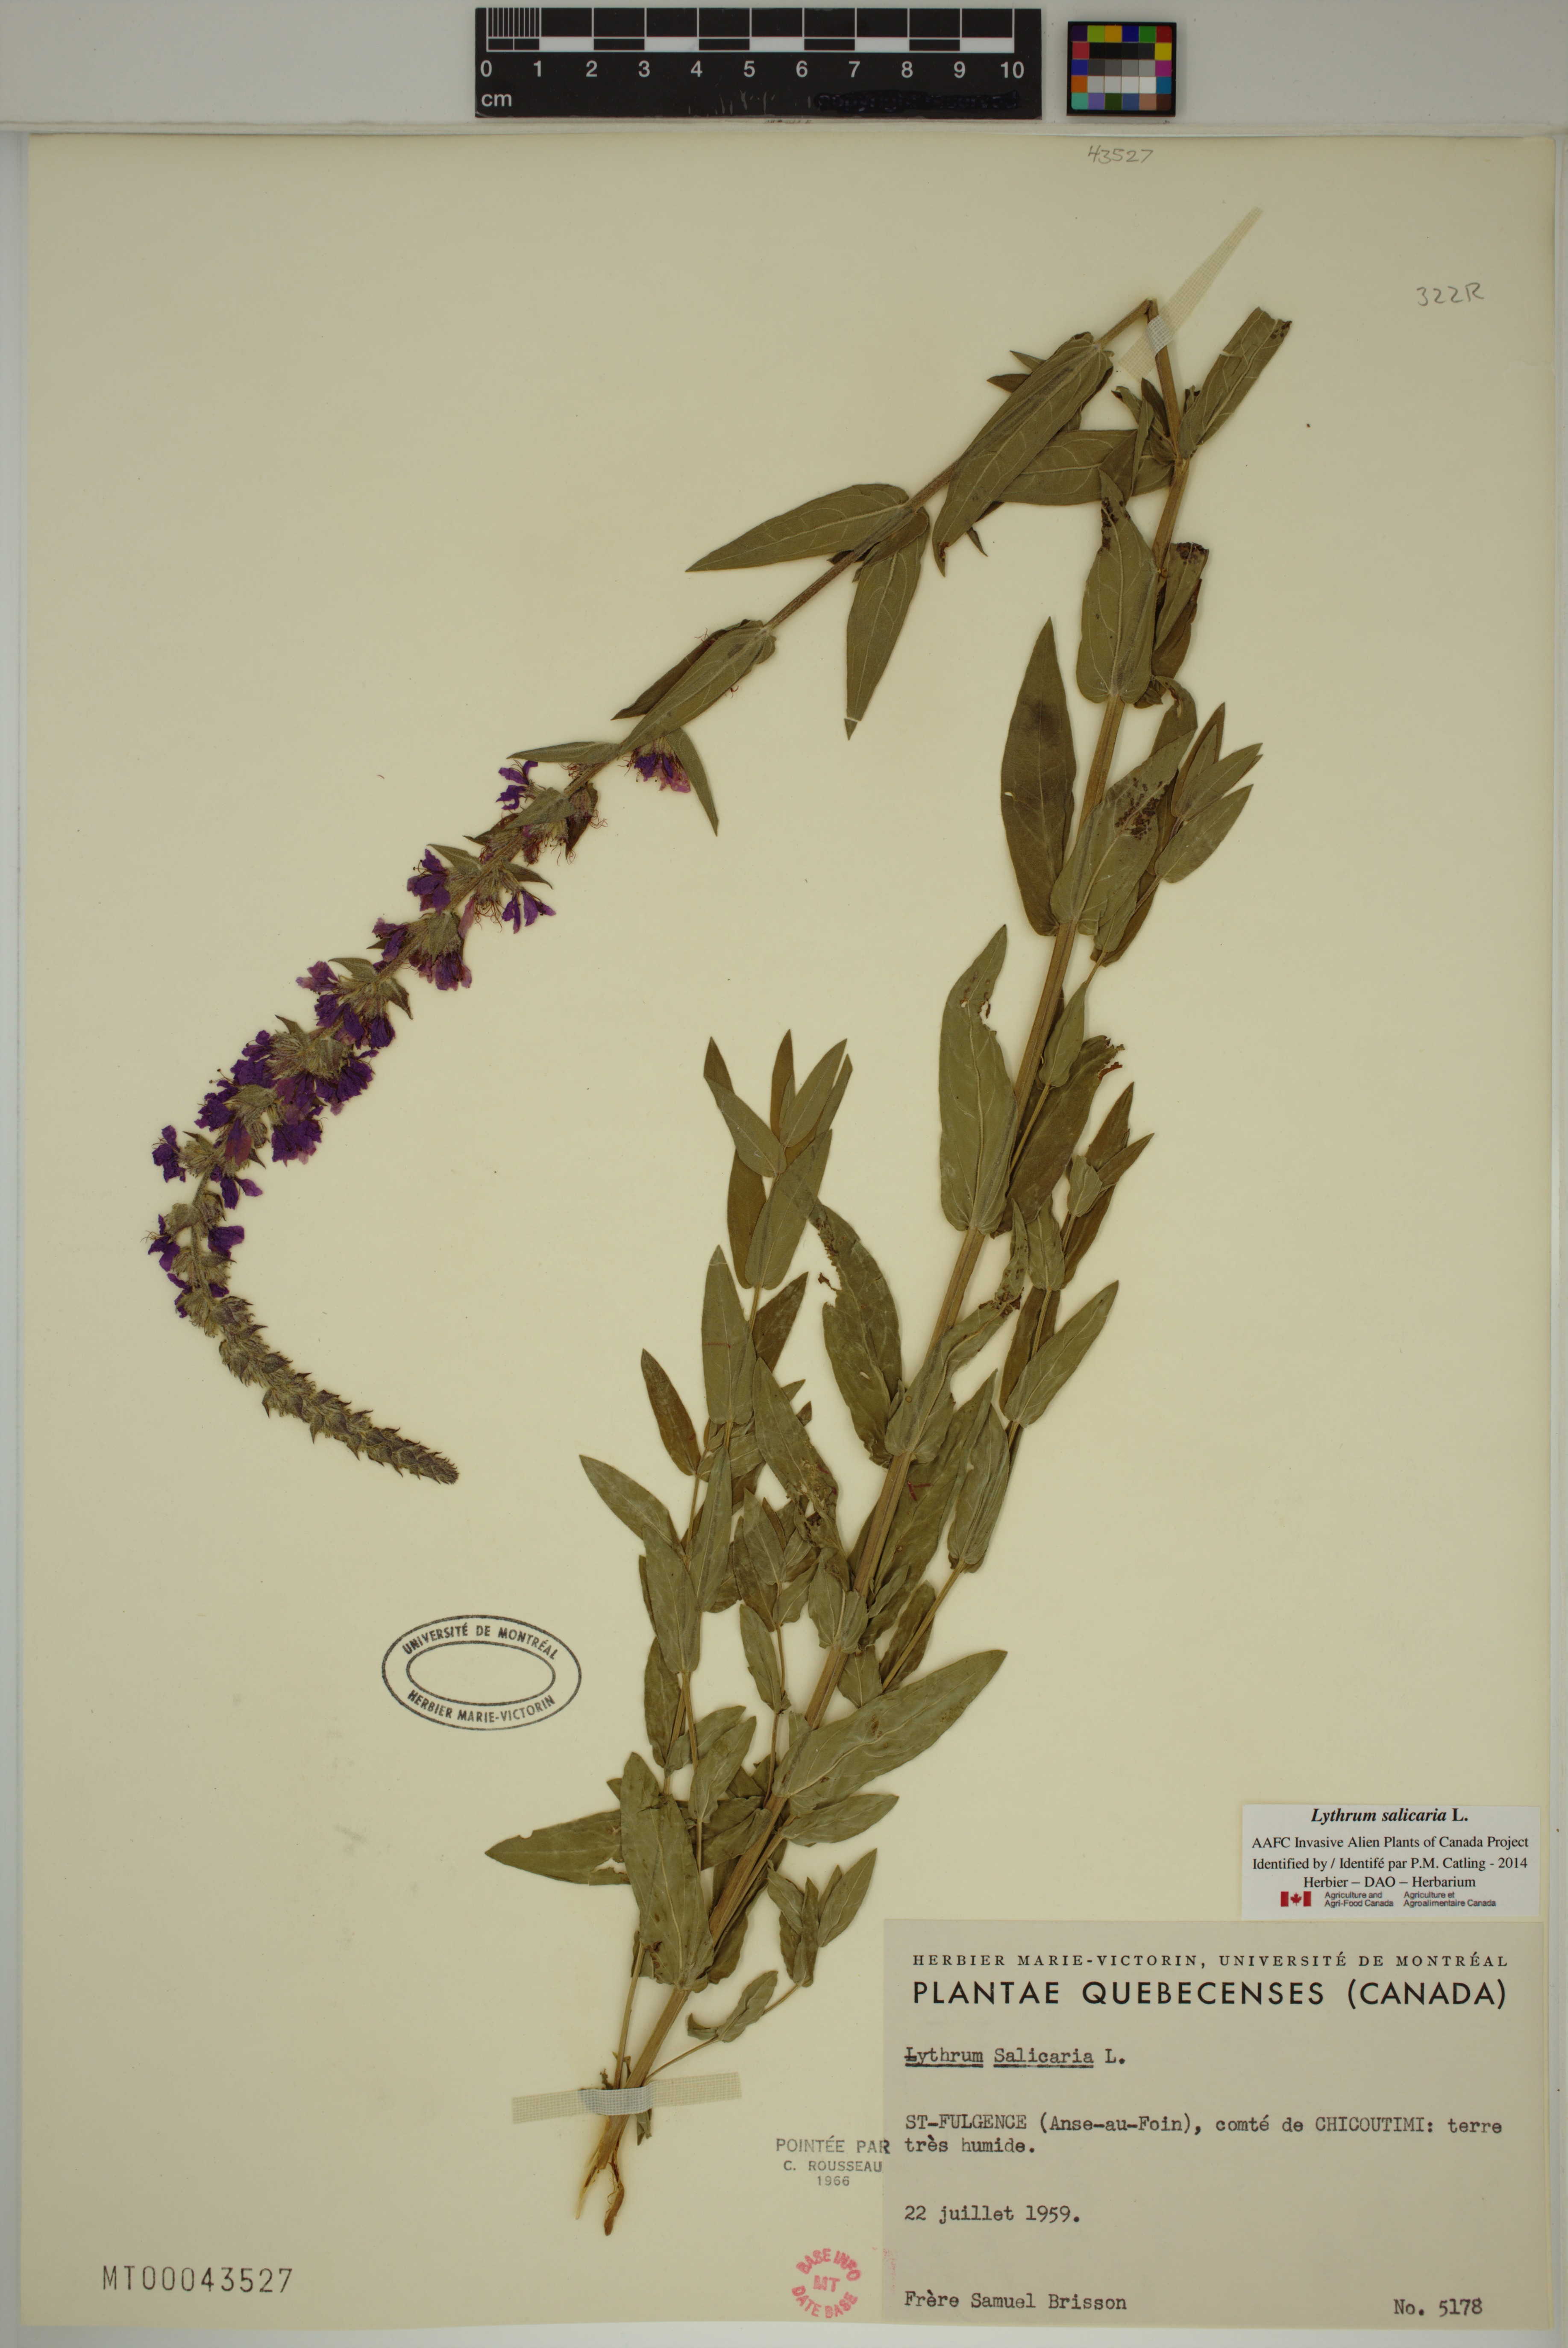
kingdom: Plantae
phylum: Tracheophyta
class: Magnoliopsida
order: Myrtales
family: Lythraceae
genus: Lythrum
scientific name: Lythrum salicaria
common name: Purple loosestrife
